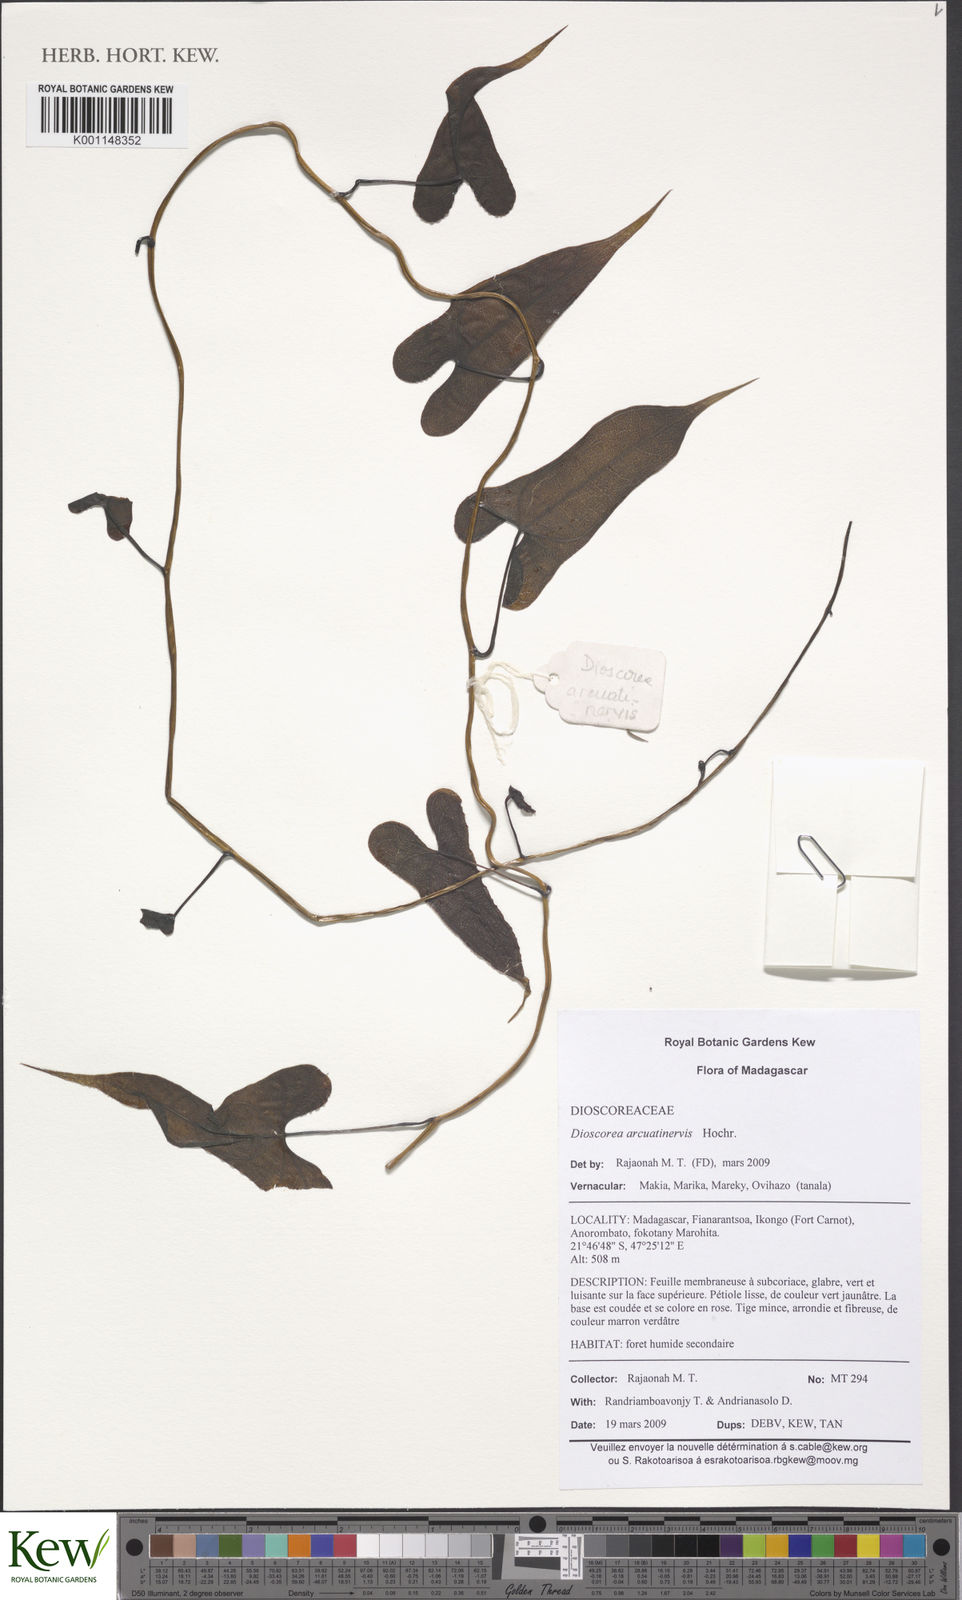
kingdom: Plantae
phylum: Tracheophyta
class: Liliopsida
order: Dioscoreales
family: Dioscoreaceae
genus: Dioscorea
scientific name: Dioscorea arcuatinervis
